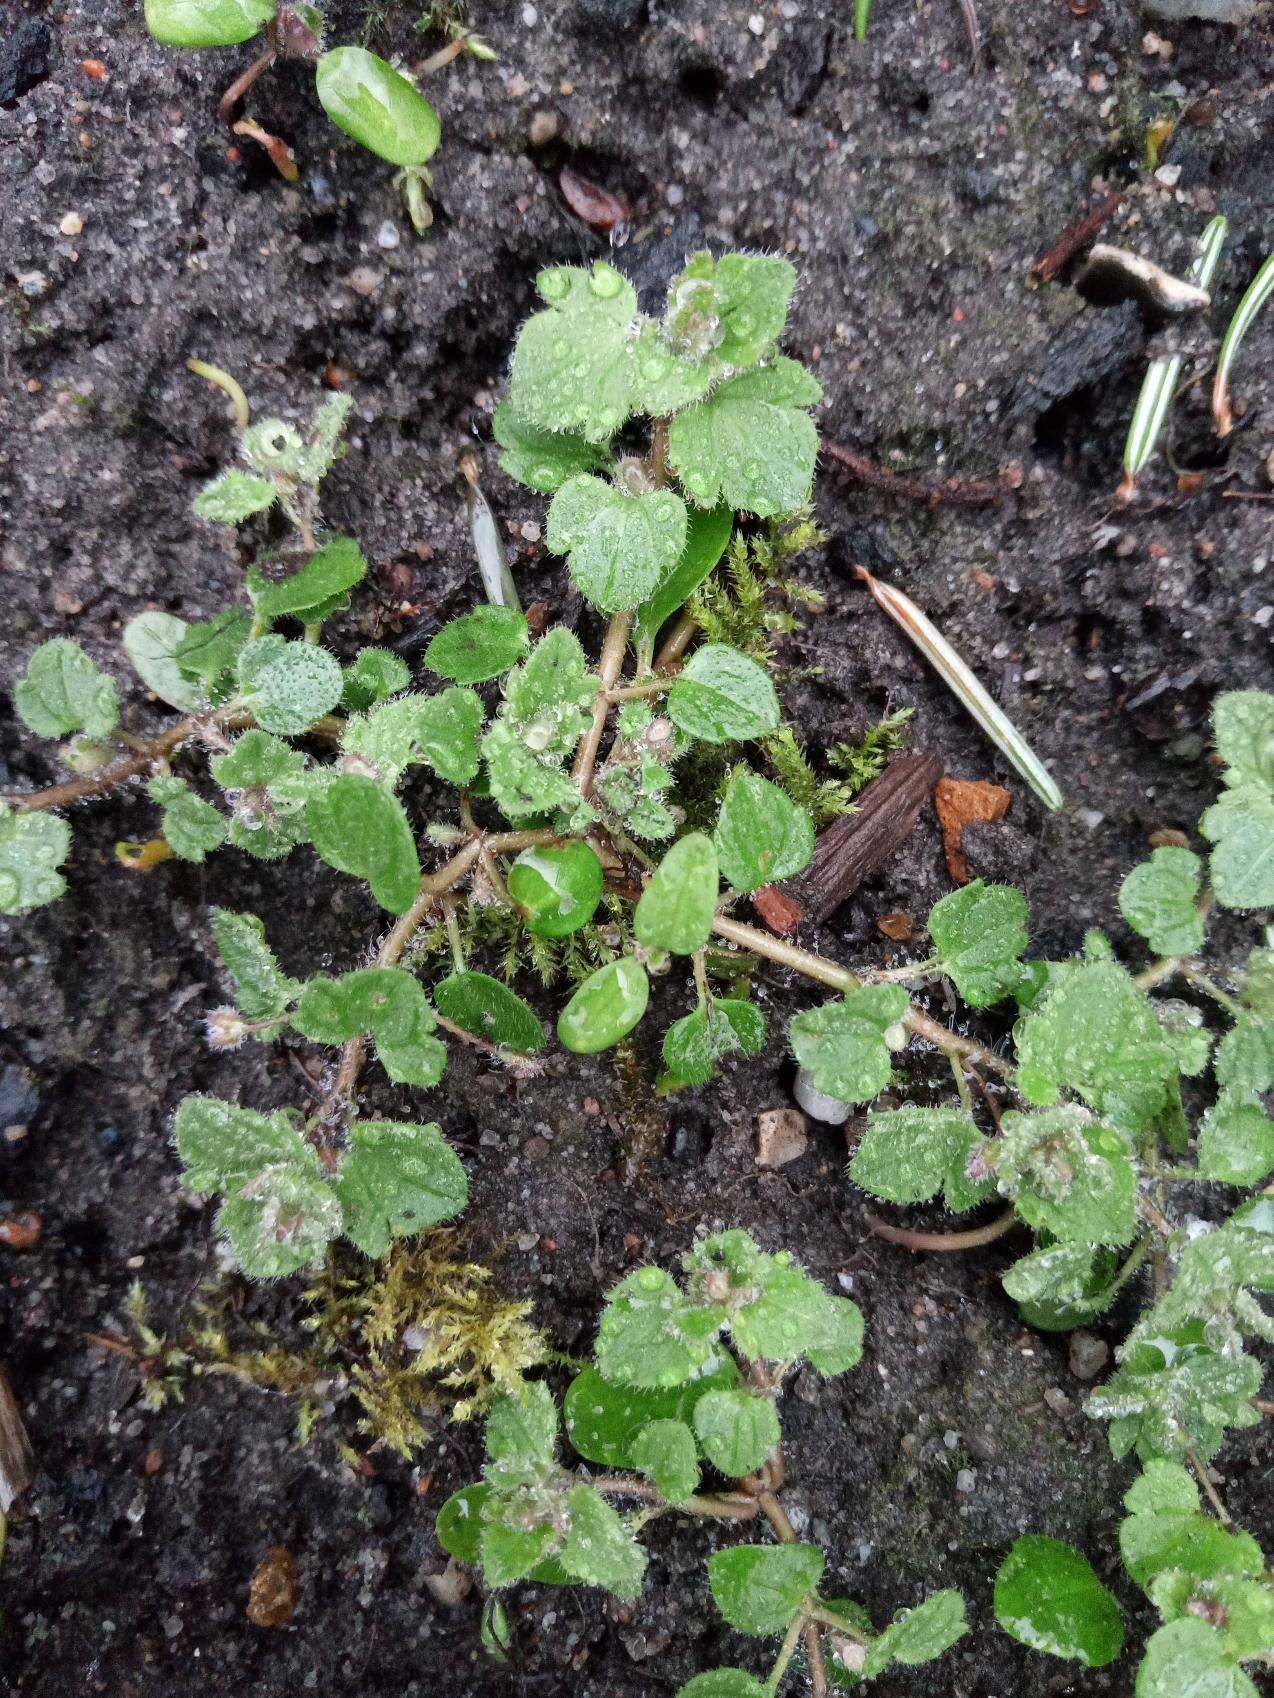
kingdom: Plantae
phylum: Tracheophyta
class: Magnoliopsida
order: Lamiales
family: Plantaginaceae
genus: Veronica
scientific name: Veronica hederifolia
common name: Vedbend-ærenpris
